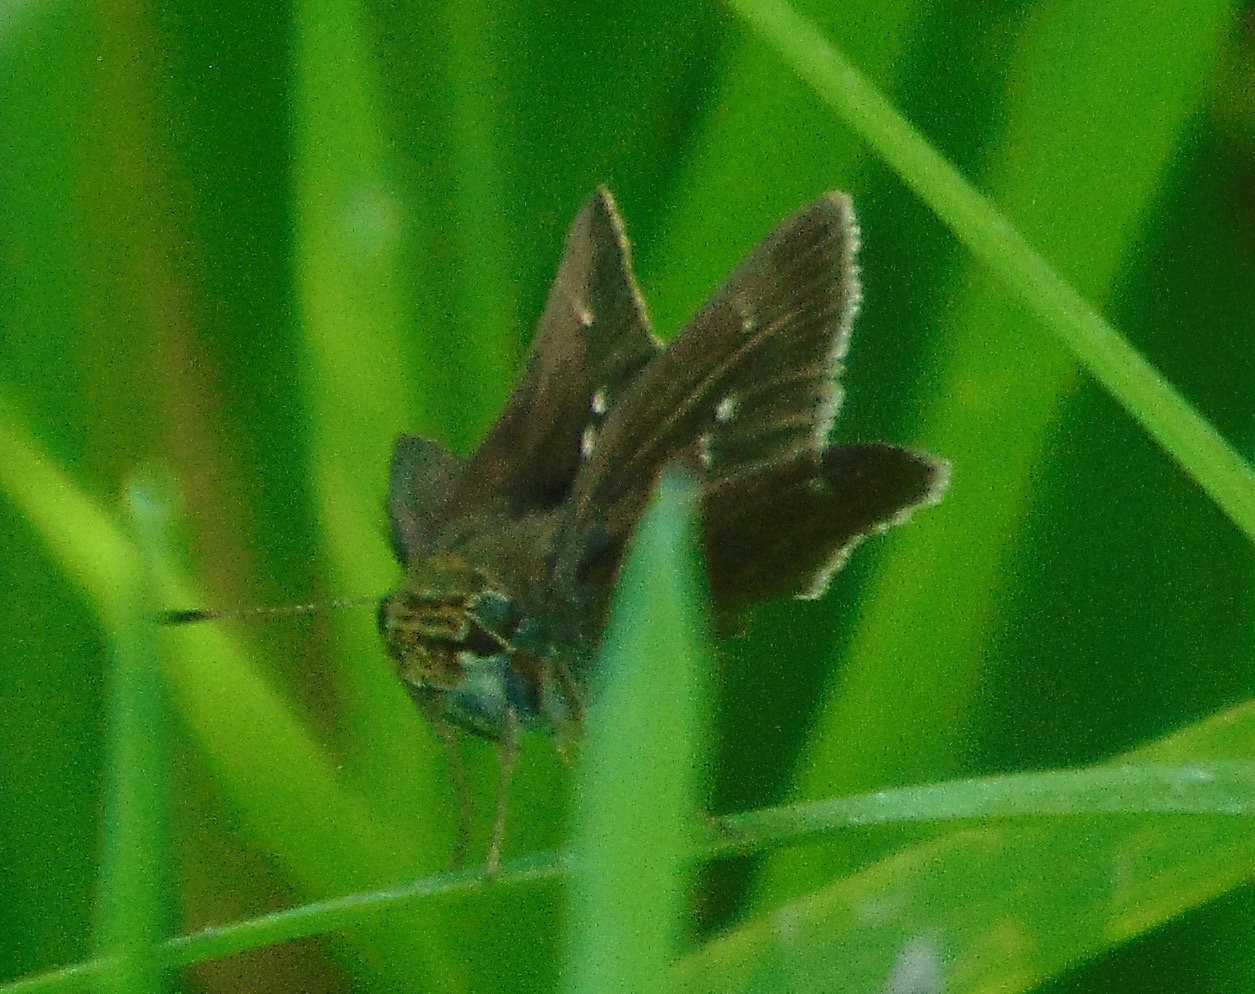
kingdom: Animalia
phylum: Arthropoda
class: Insecta
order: Lepidoptera
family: Hesperiidae
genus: Polites
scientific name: Polites egeremet
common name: Northern Broken-Dash
